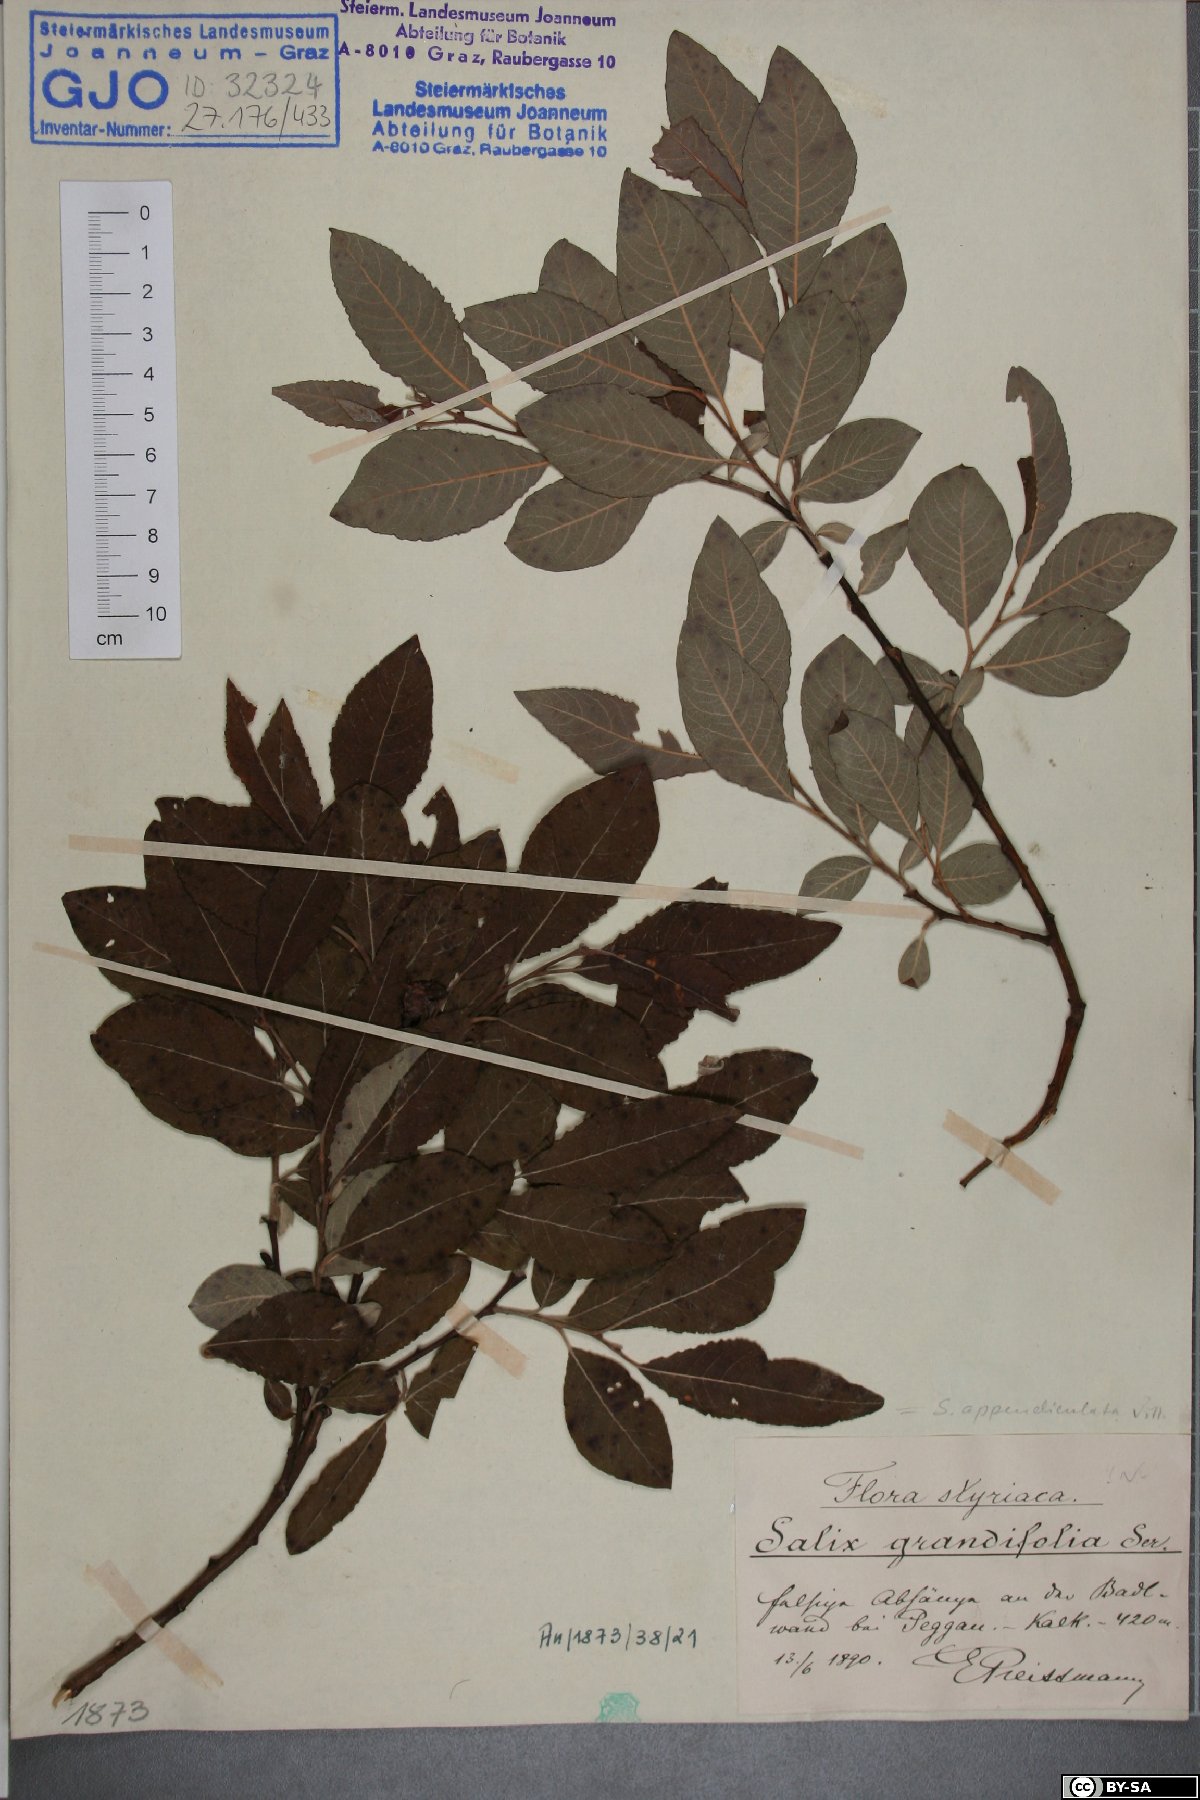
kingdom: Plantae
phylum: Tracheophyta
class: Magnoliopsida
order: Malpighiales
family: Salicaceae
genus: Salix
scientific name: Salix appendiculata
